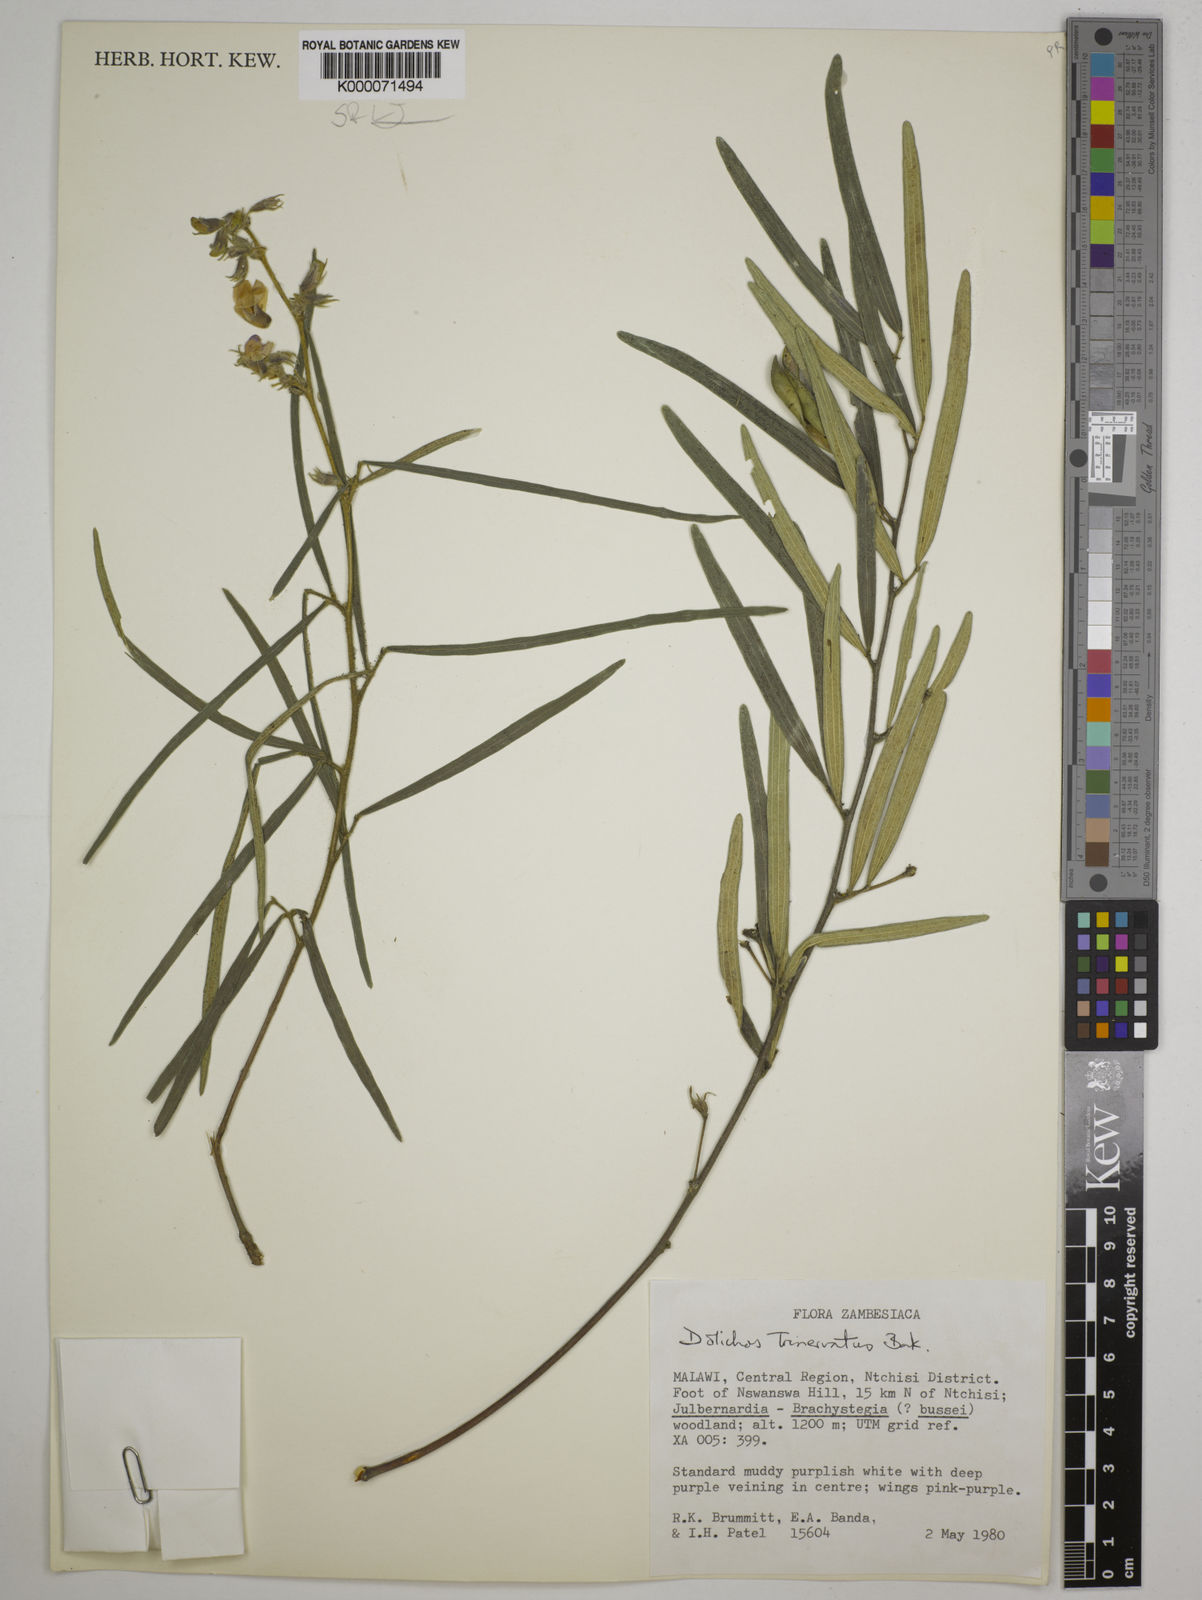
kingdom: Plantae
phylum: Tracheophyta
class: Magnoliopsida
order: Fabales
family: Fabaceae
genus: Dolichos
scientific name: Dolichos trinervatus
